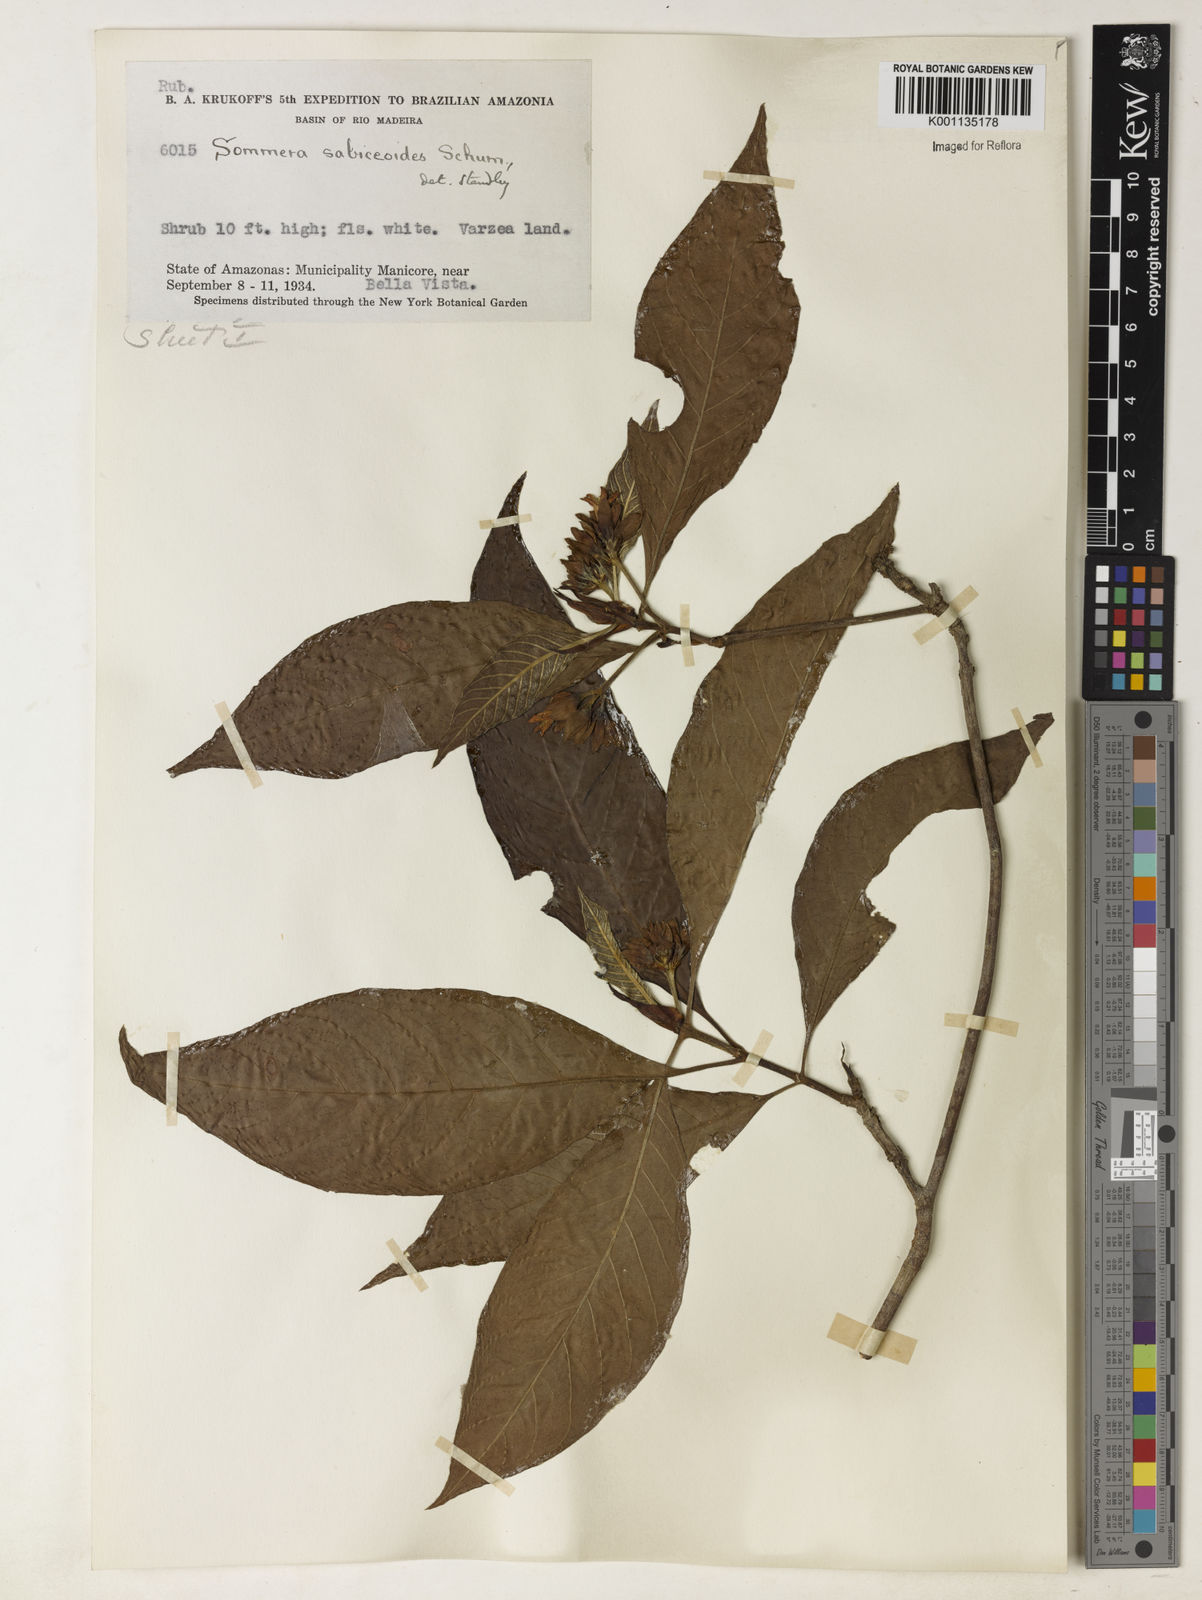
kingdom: Plantae
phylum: Tracheophyta
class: Magnoliopsida
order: Gentianales
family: Rubiaceae
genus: Sommera
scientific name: Sommera sabiceoides
